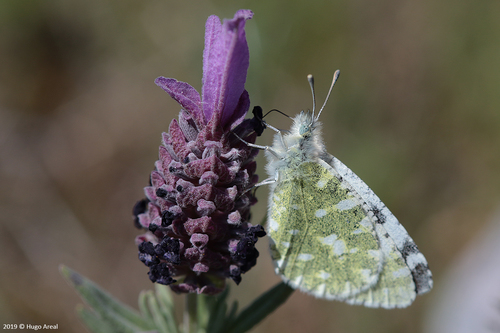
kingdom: Animalia
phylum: Arthropoda
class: Insecta
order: Lepidoptera
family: Pieridae
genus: Euchloe
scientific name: Euchloe tagis
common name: Portuguese dappled white
